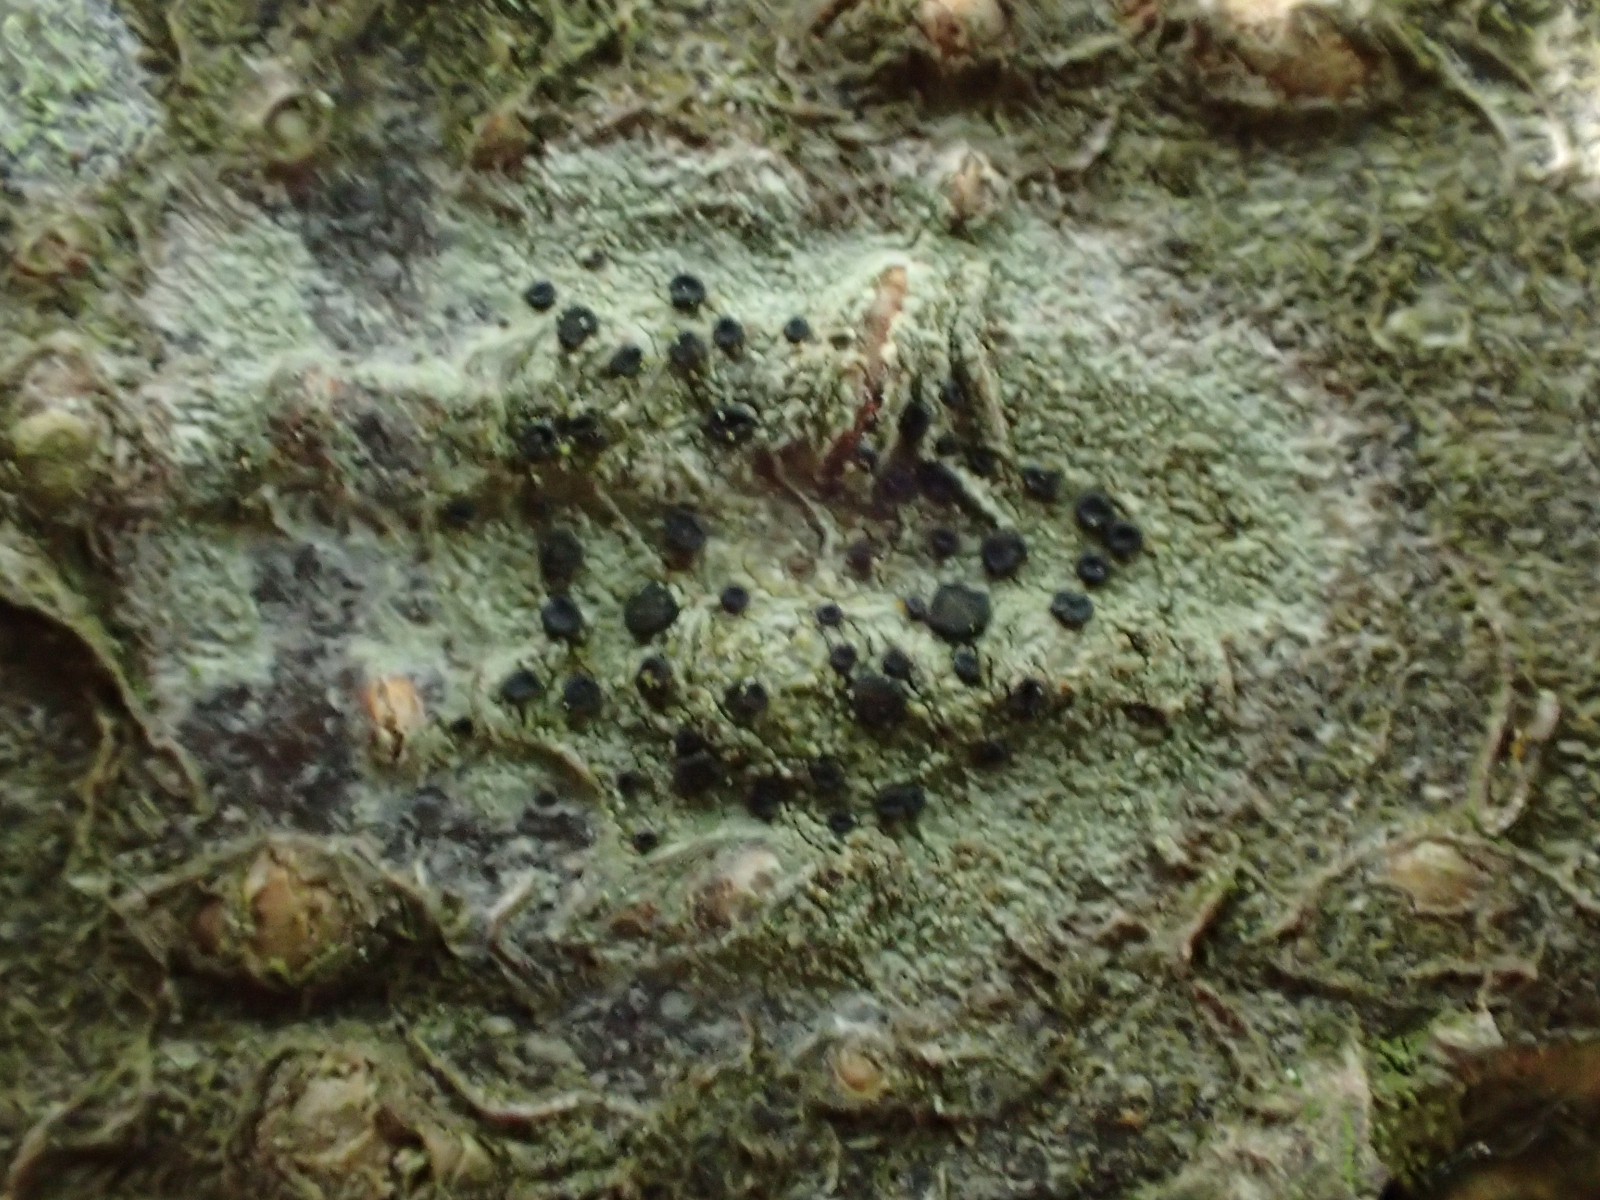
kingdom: Fungi
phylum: Ascomycota
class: Lecanoromycetes
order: Lecanorales
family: Lecanoraceae
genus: Lecidella
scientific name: Lecidella elaeochroma
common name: grågrøn skivelav
